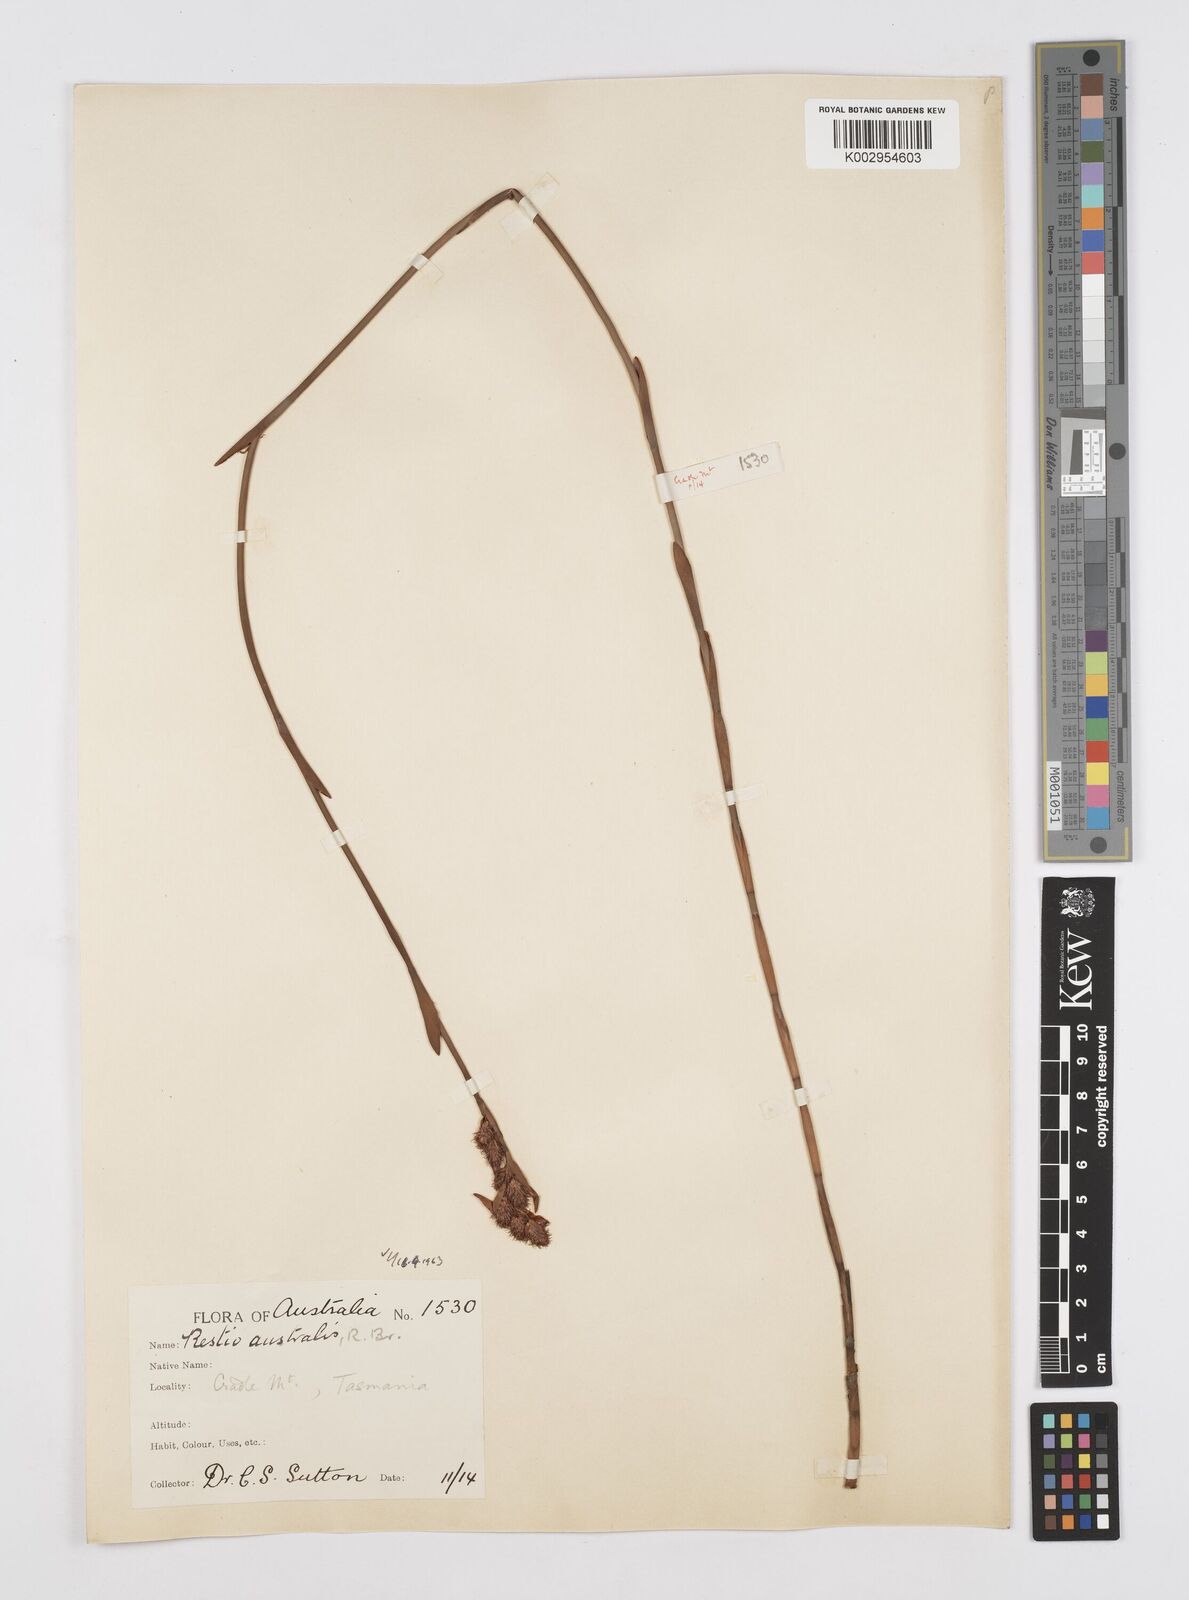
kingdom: Plantae
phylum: Tracheophyta
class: Liliopsida
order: Poales
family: Restionaceae
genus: Baloskion
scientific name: Baloskion australe
